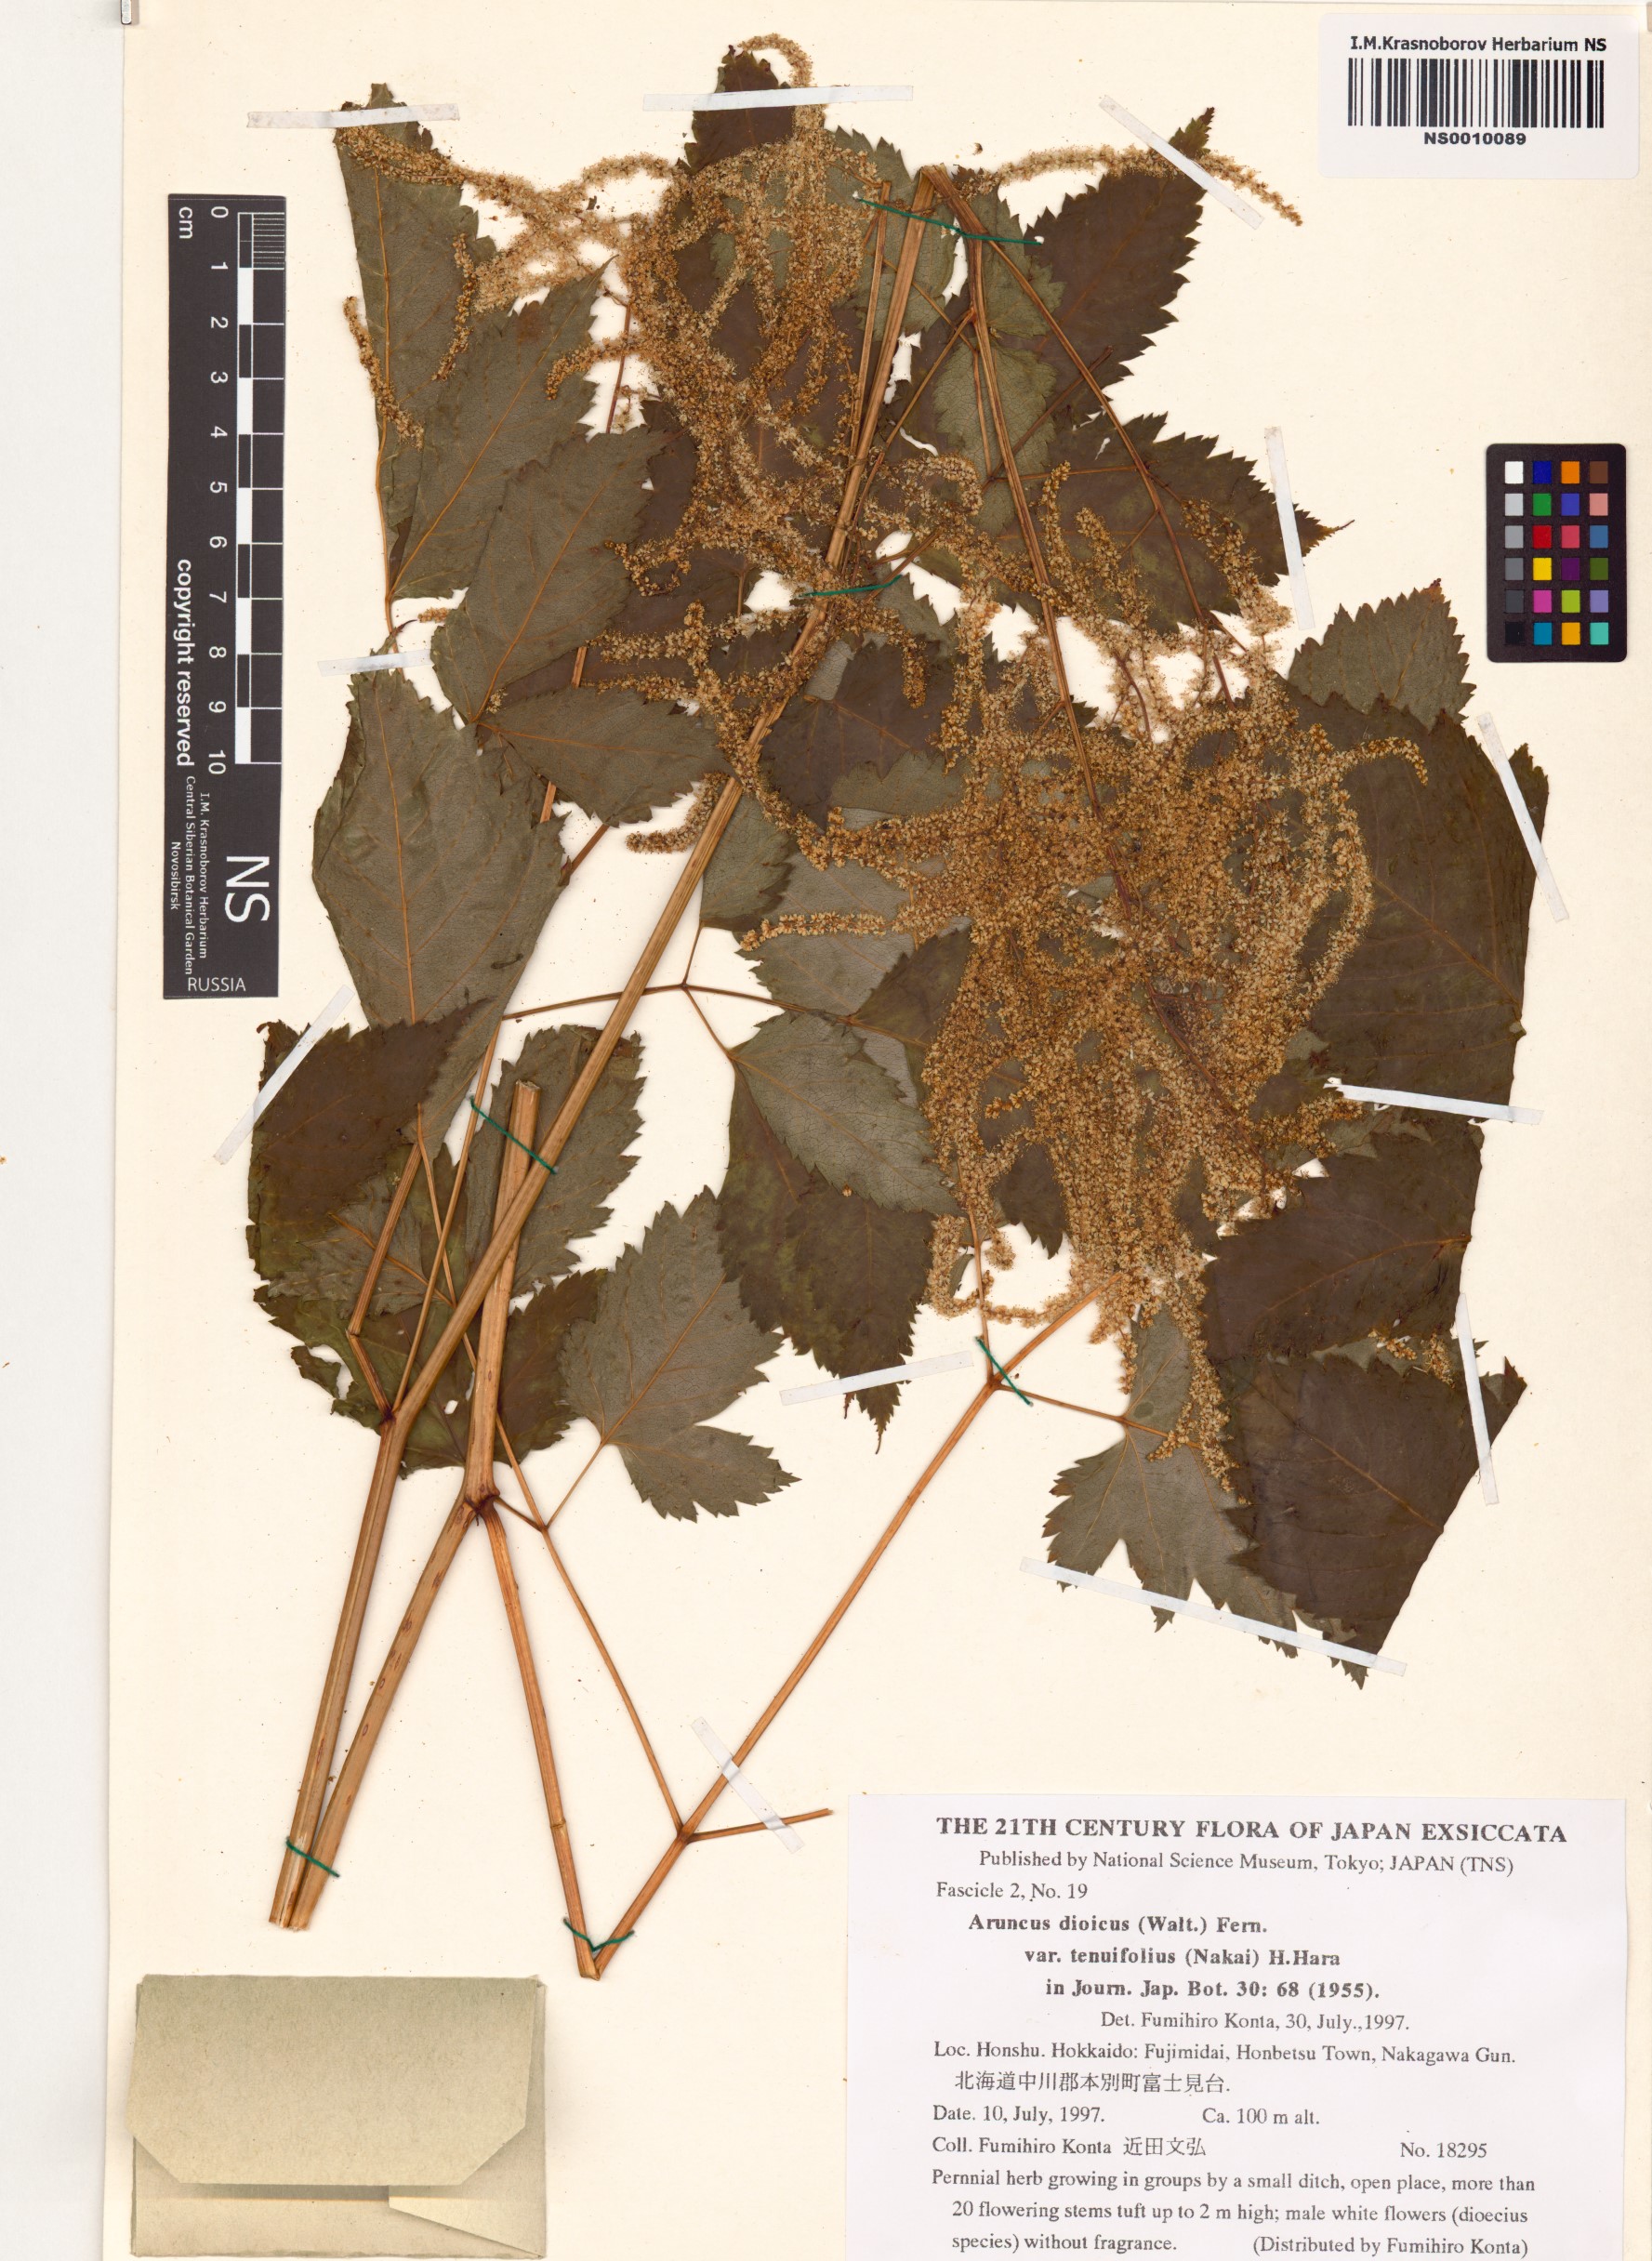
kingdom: Plantae
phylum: Tracheophyta
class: Magnoliopsida
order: Rosales
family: Rosaceae
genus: Aruncus
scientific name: Aruncus sylvester
